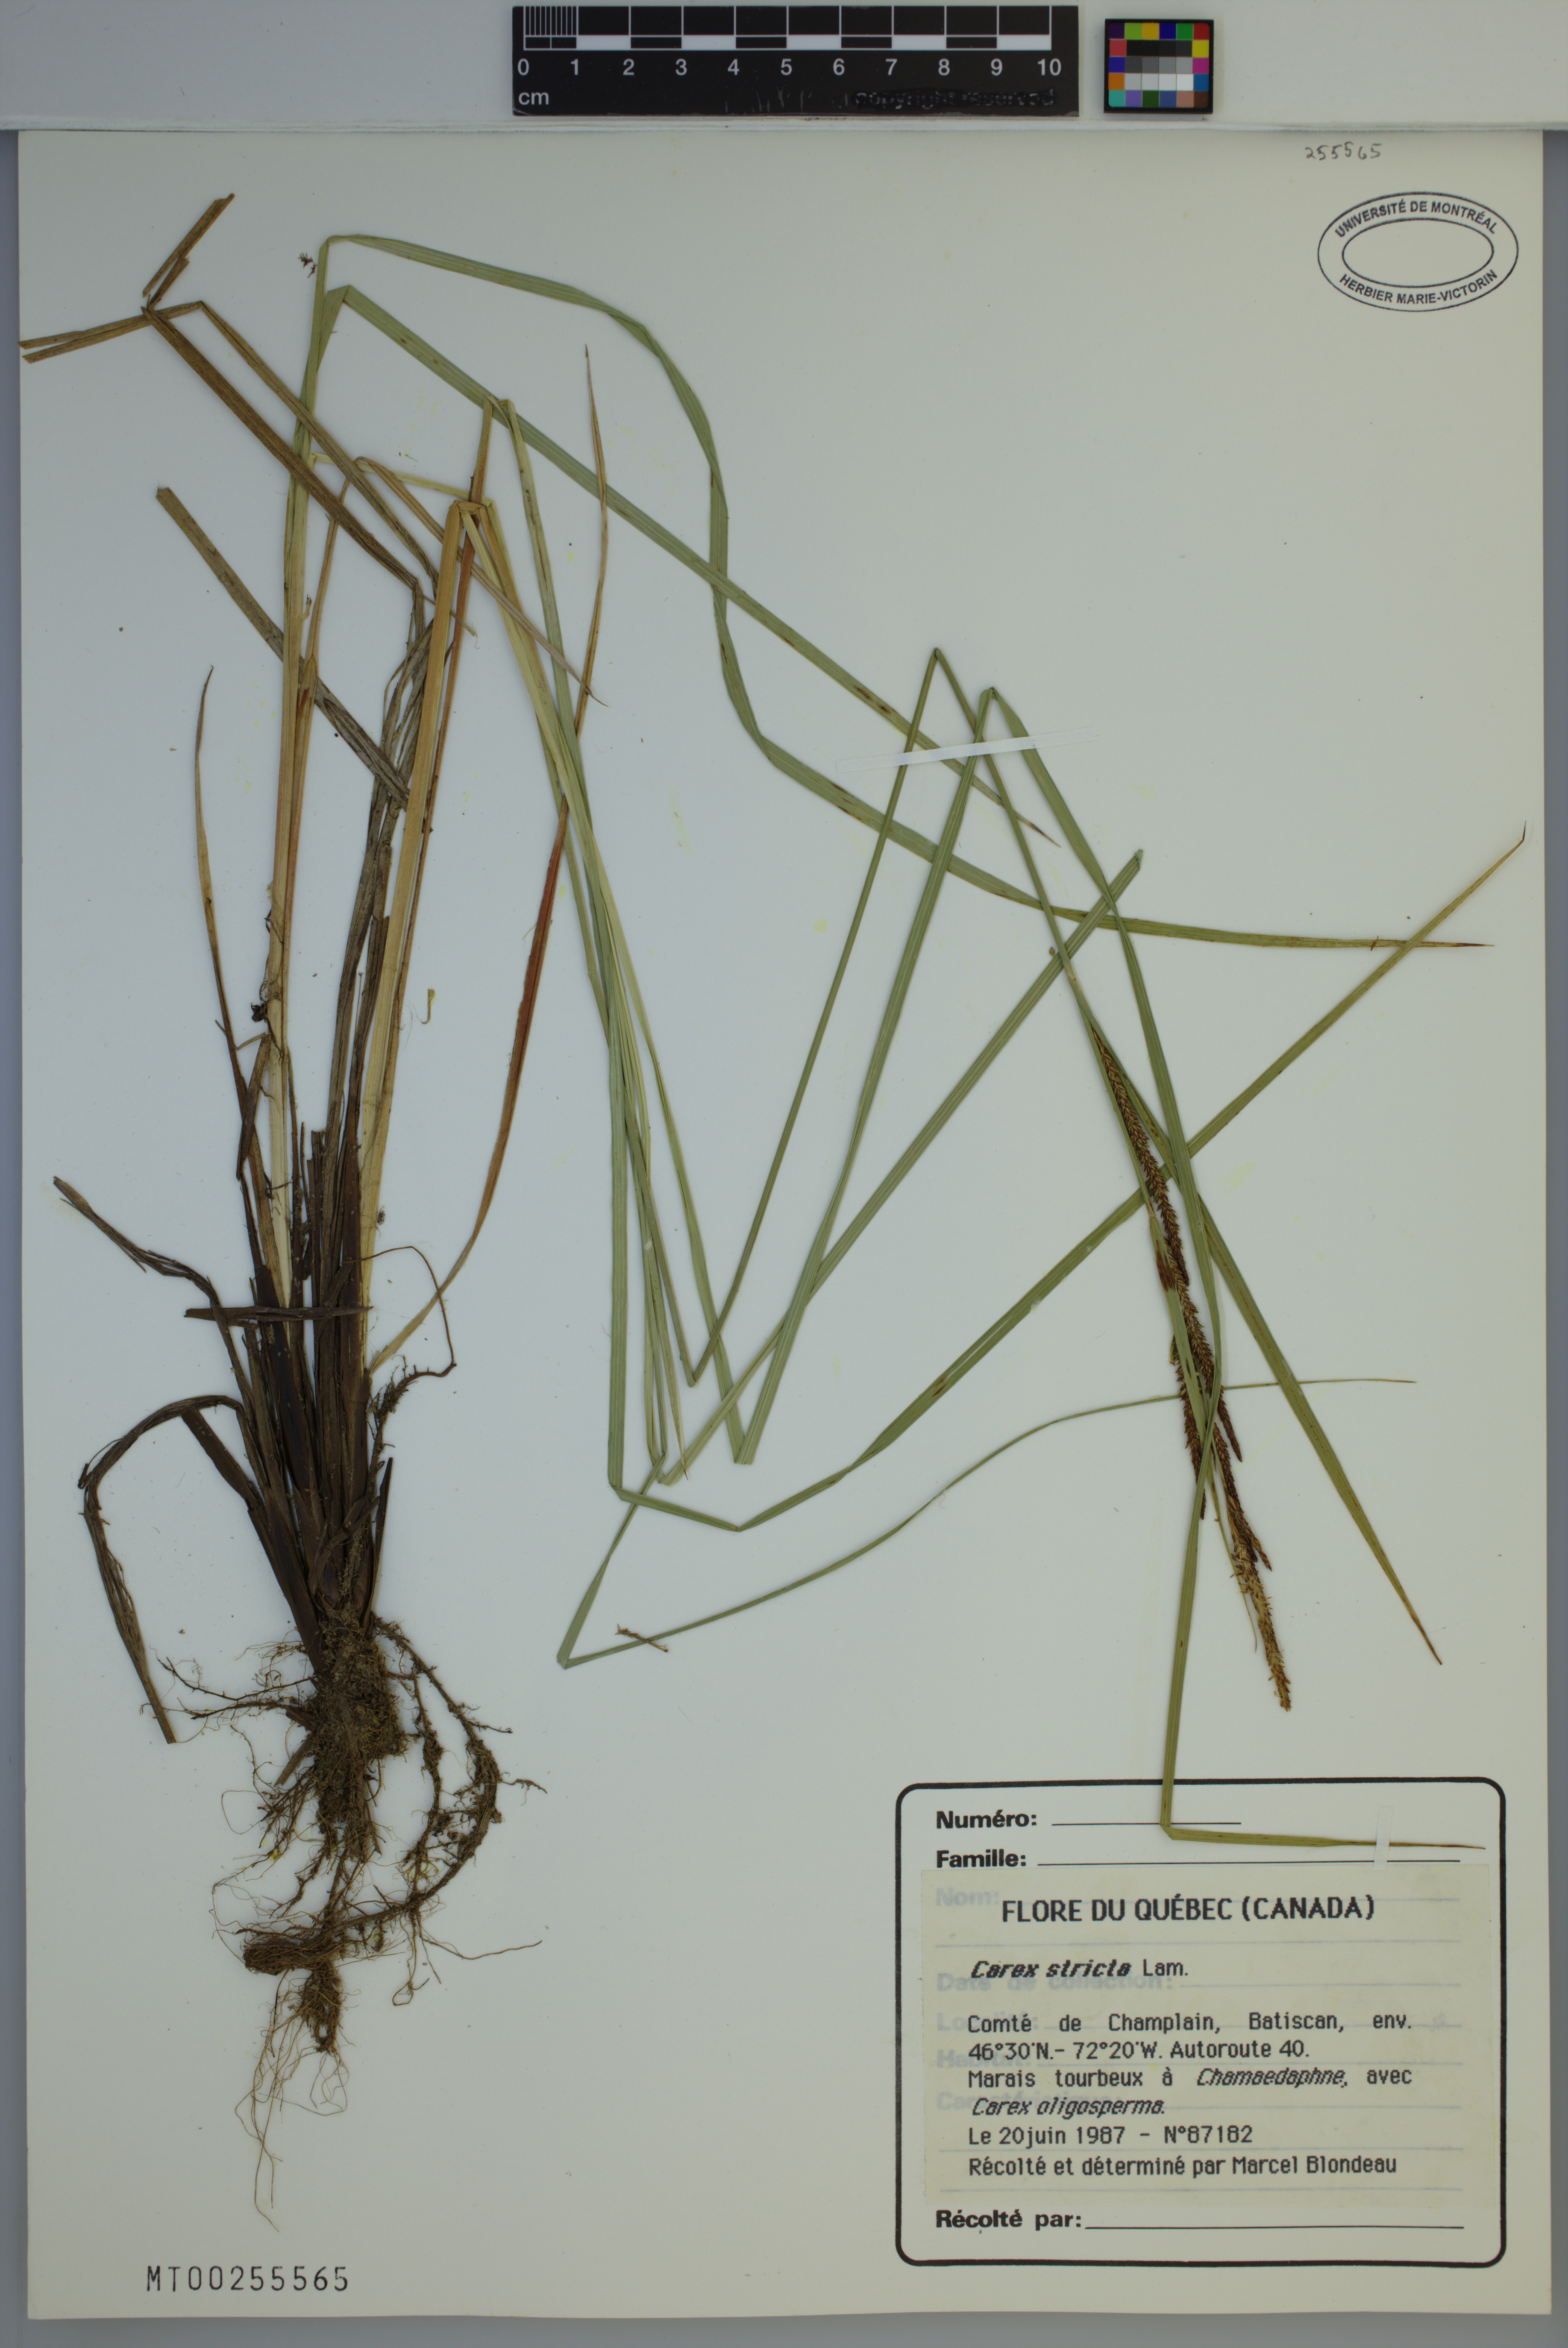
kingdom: Plantae
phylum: Tracheophyta
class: Liliopsida
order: Poales
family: Cyperaceae
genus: Carex
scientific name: Carex stricta
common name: Hummock sedge
